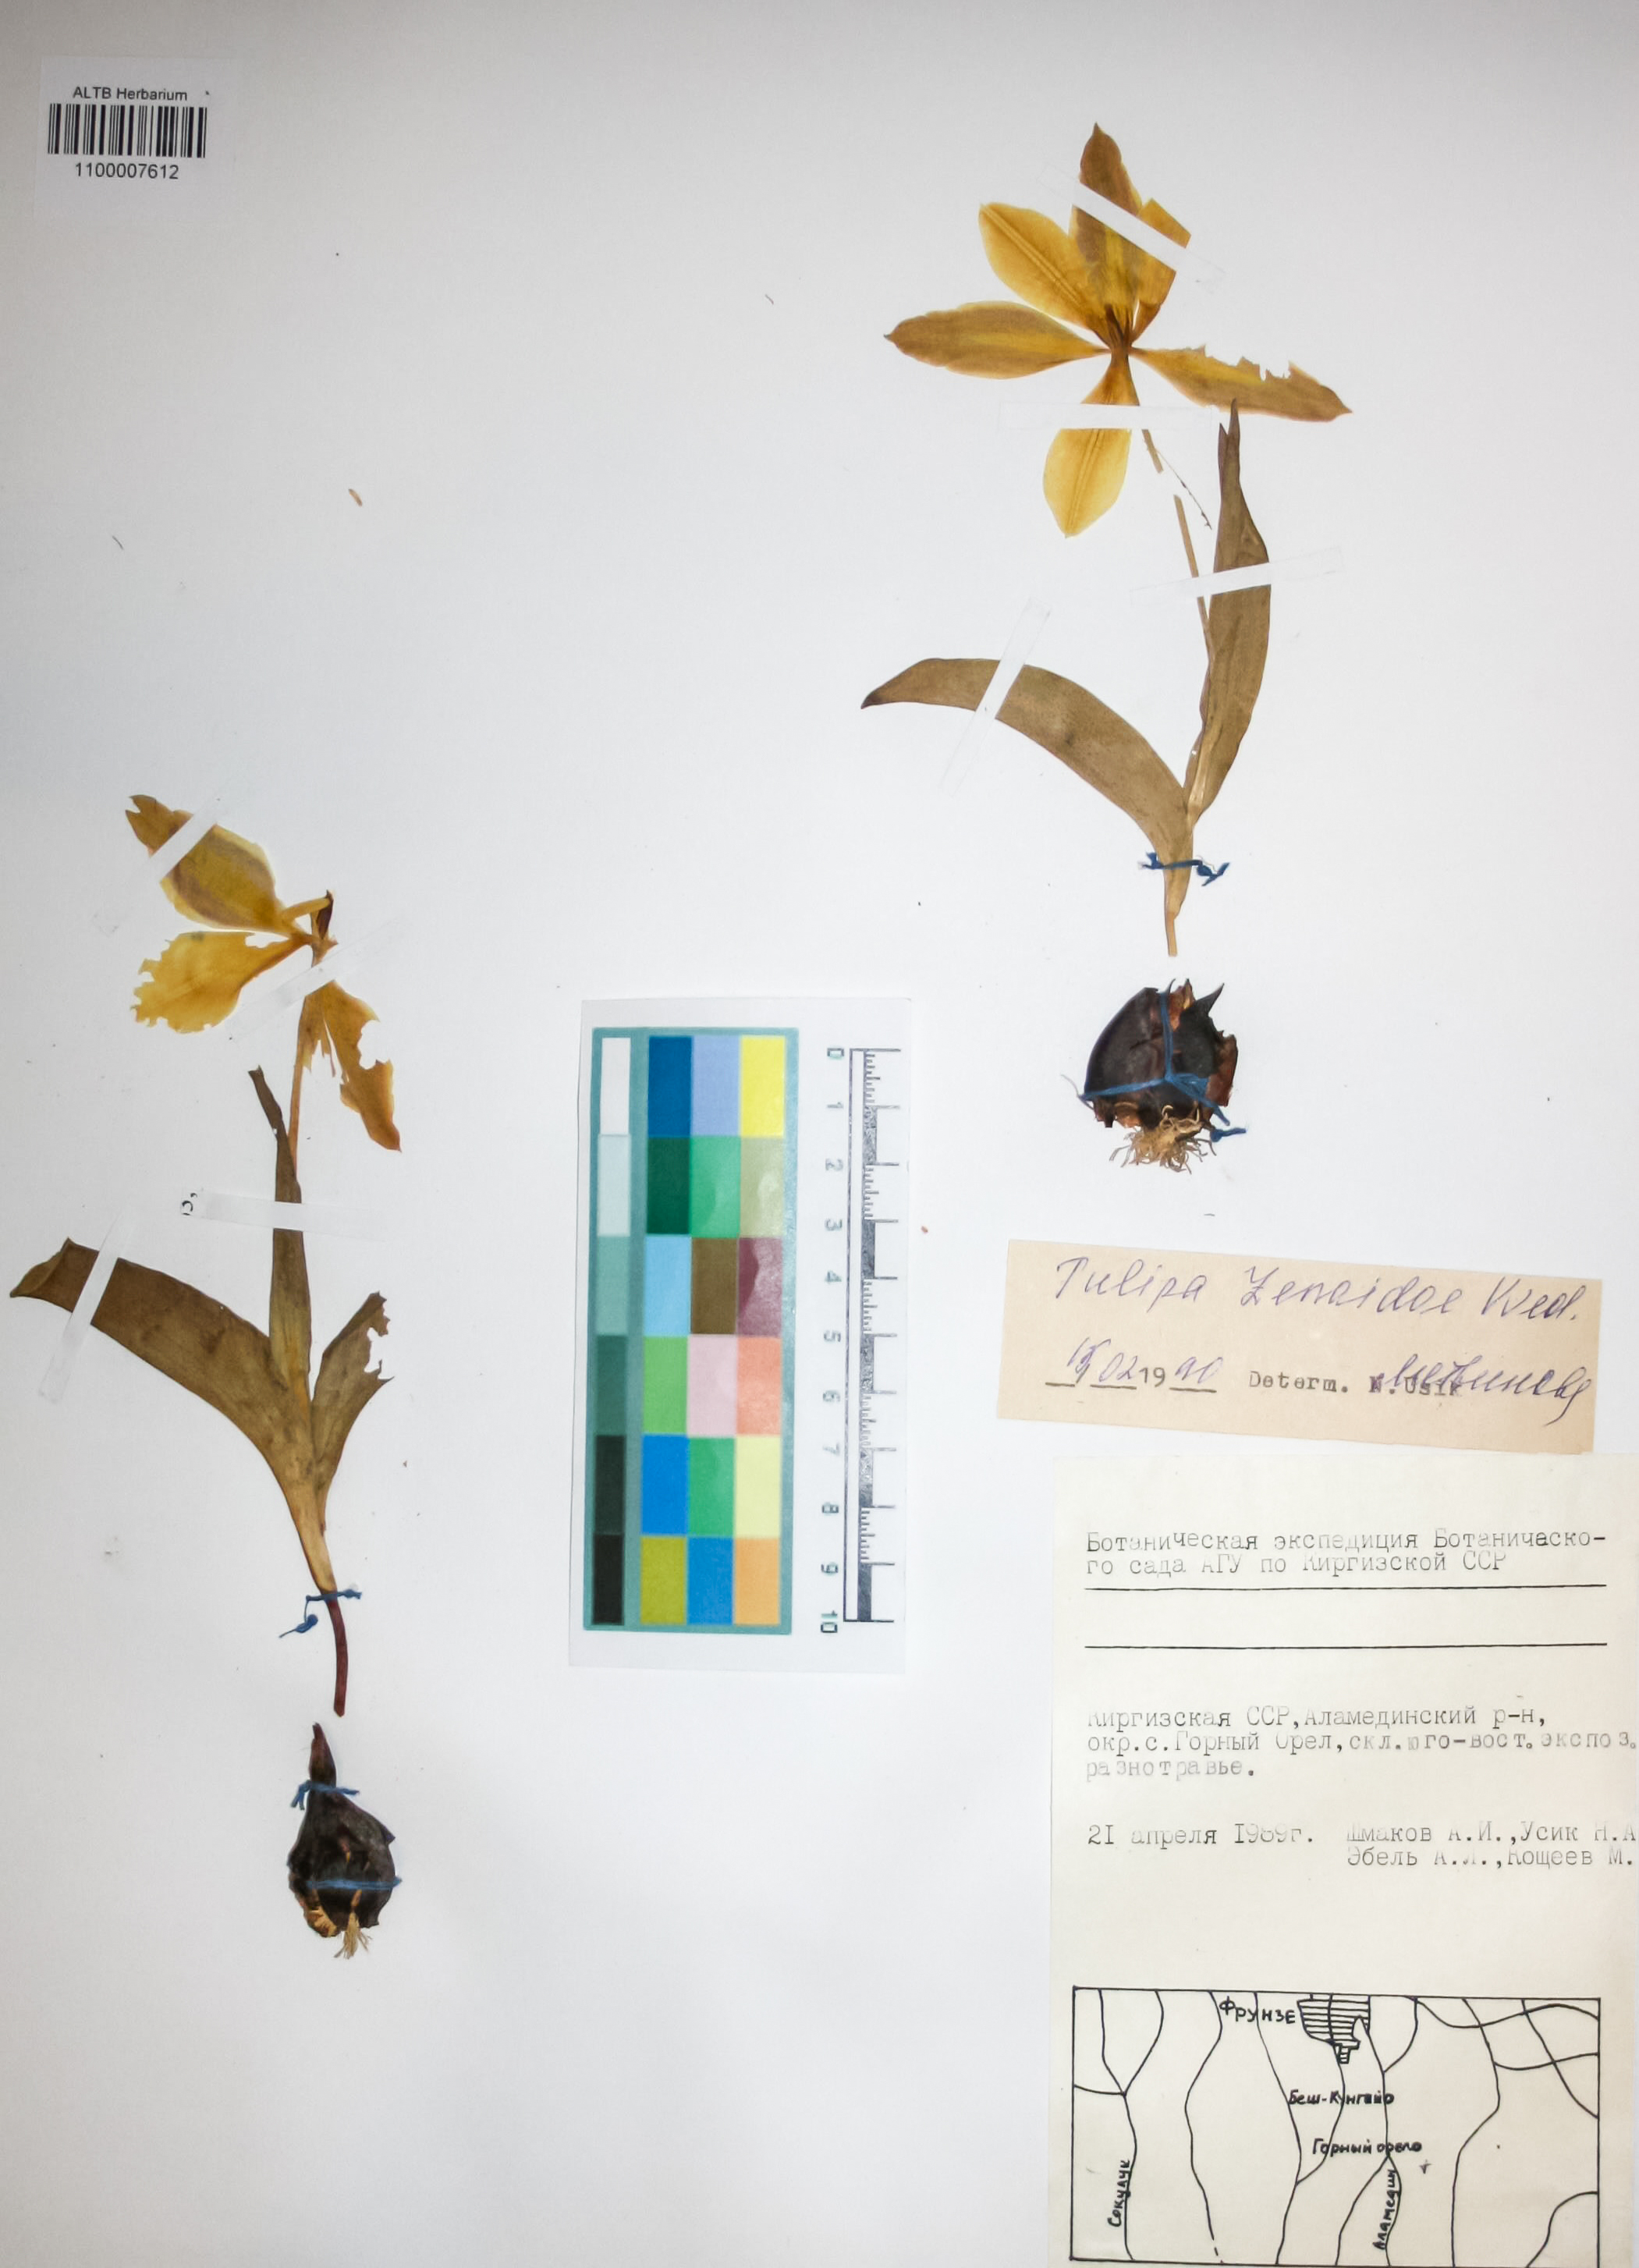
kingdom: Plantae
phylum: Tracheophyta
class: Liliopsida
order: Liliales
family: Liliaceae
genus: Tulipa
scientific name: Tulipa lehmanniana
